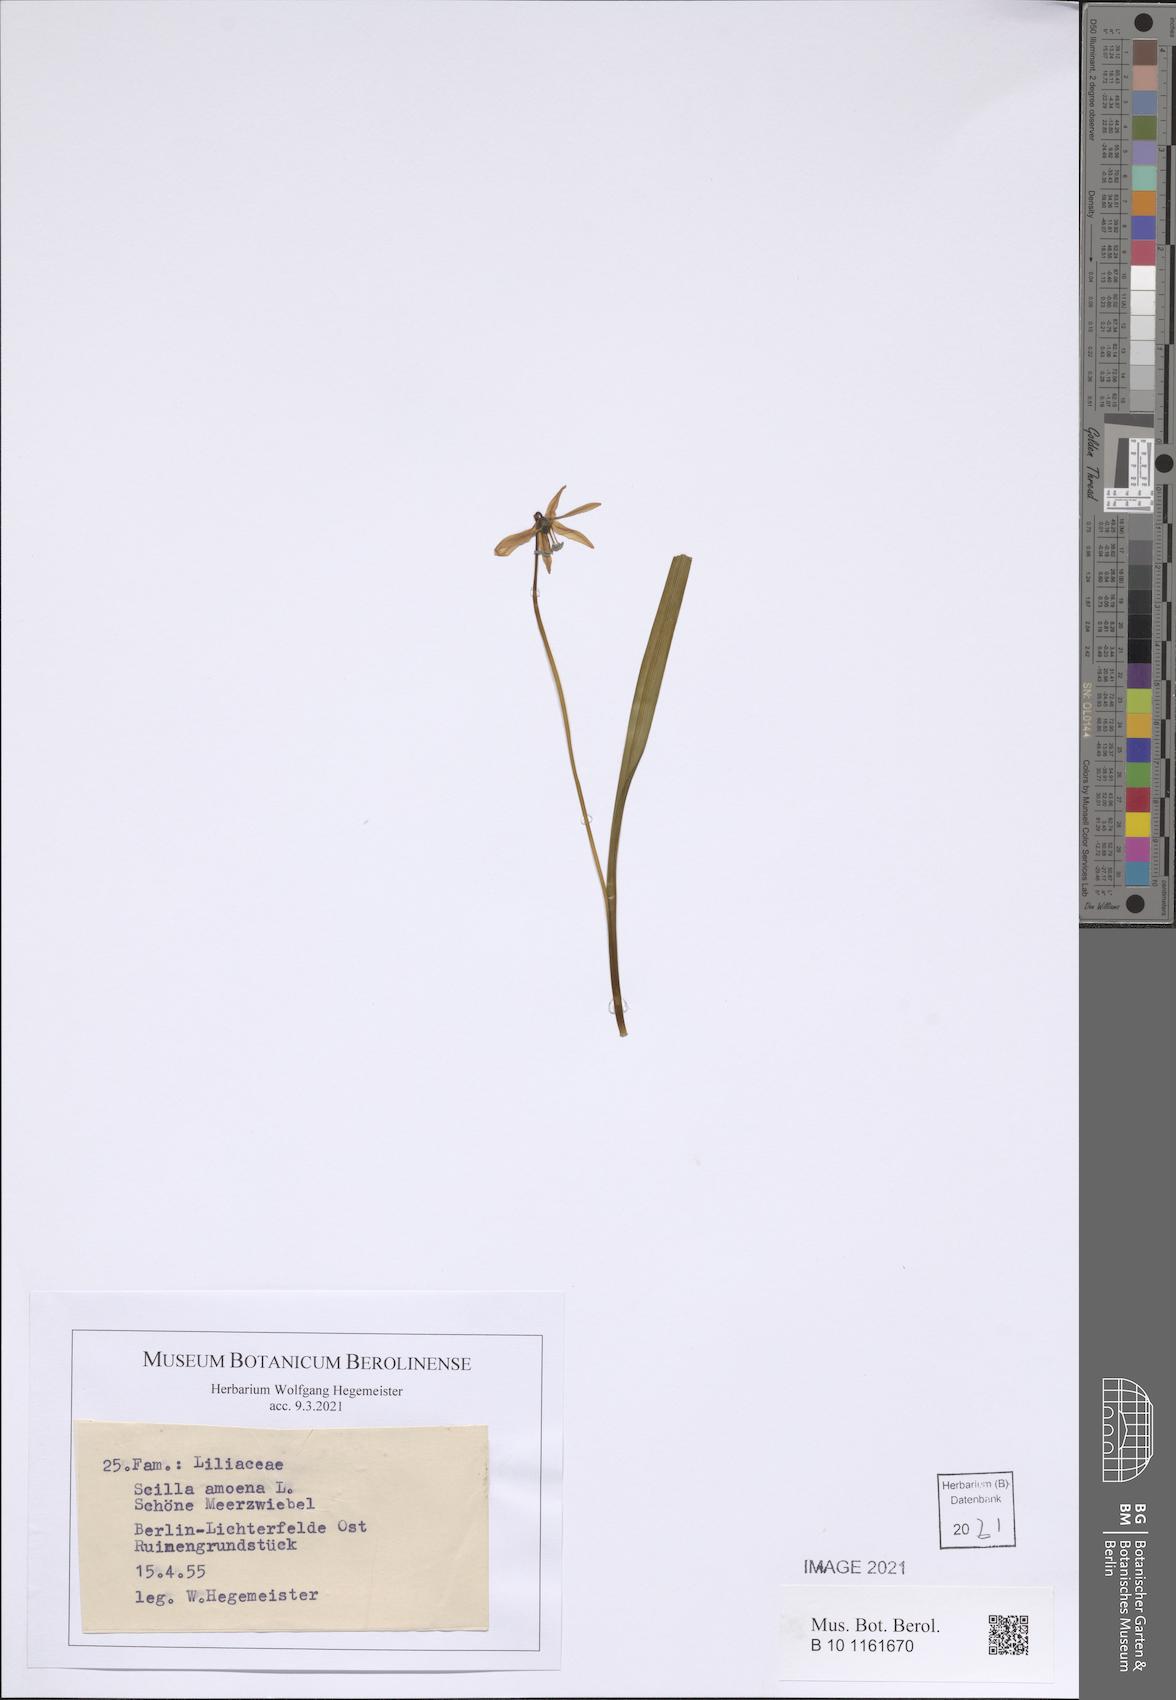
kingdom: Plantae
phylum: Tracheophyta
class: Liliopsida
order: Asparagales
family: Asparagaceae
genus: Scilla
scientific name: Scilla amoena
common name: Star-hyacinth
